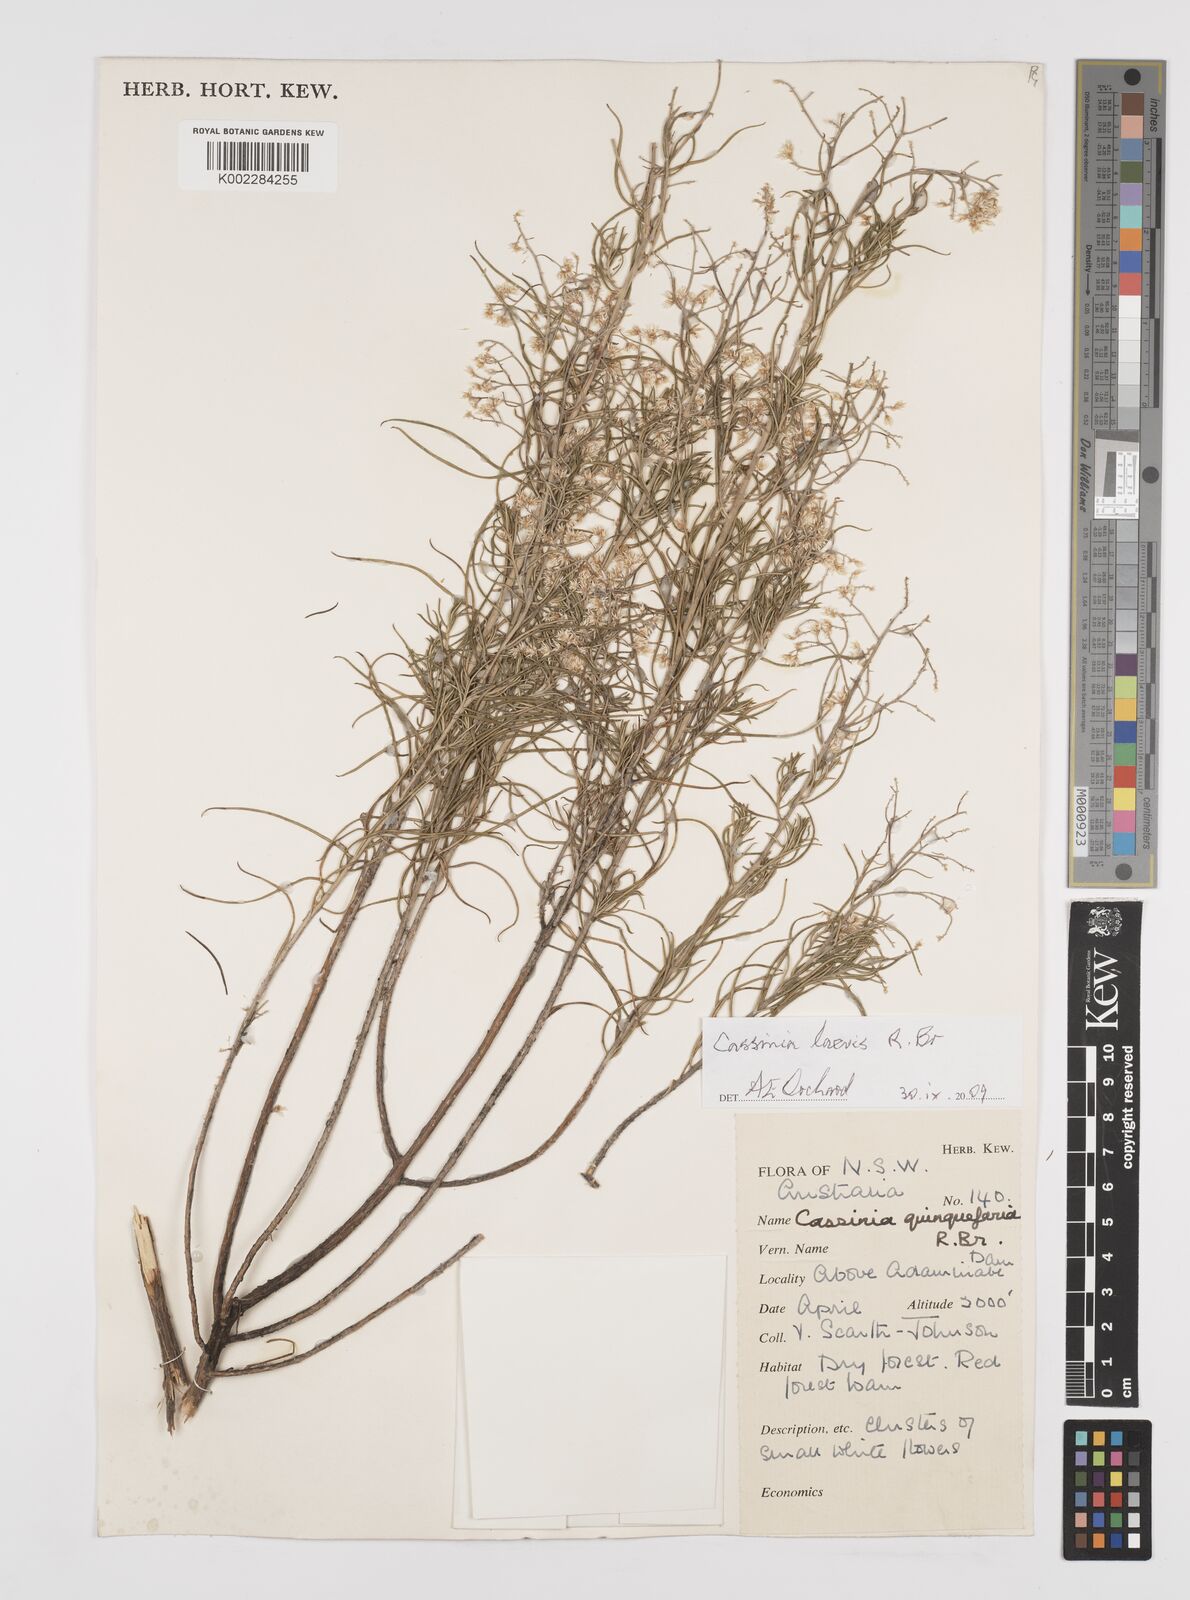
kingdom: Plantae
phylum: Tracheophyta
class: Magnoliopsida
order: Asterales
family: Asteraceae
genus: Cassinia
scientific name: Cassinia laevis
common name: Coughbush
